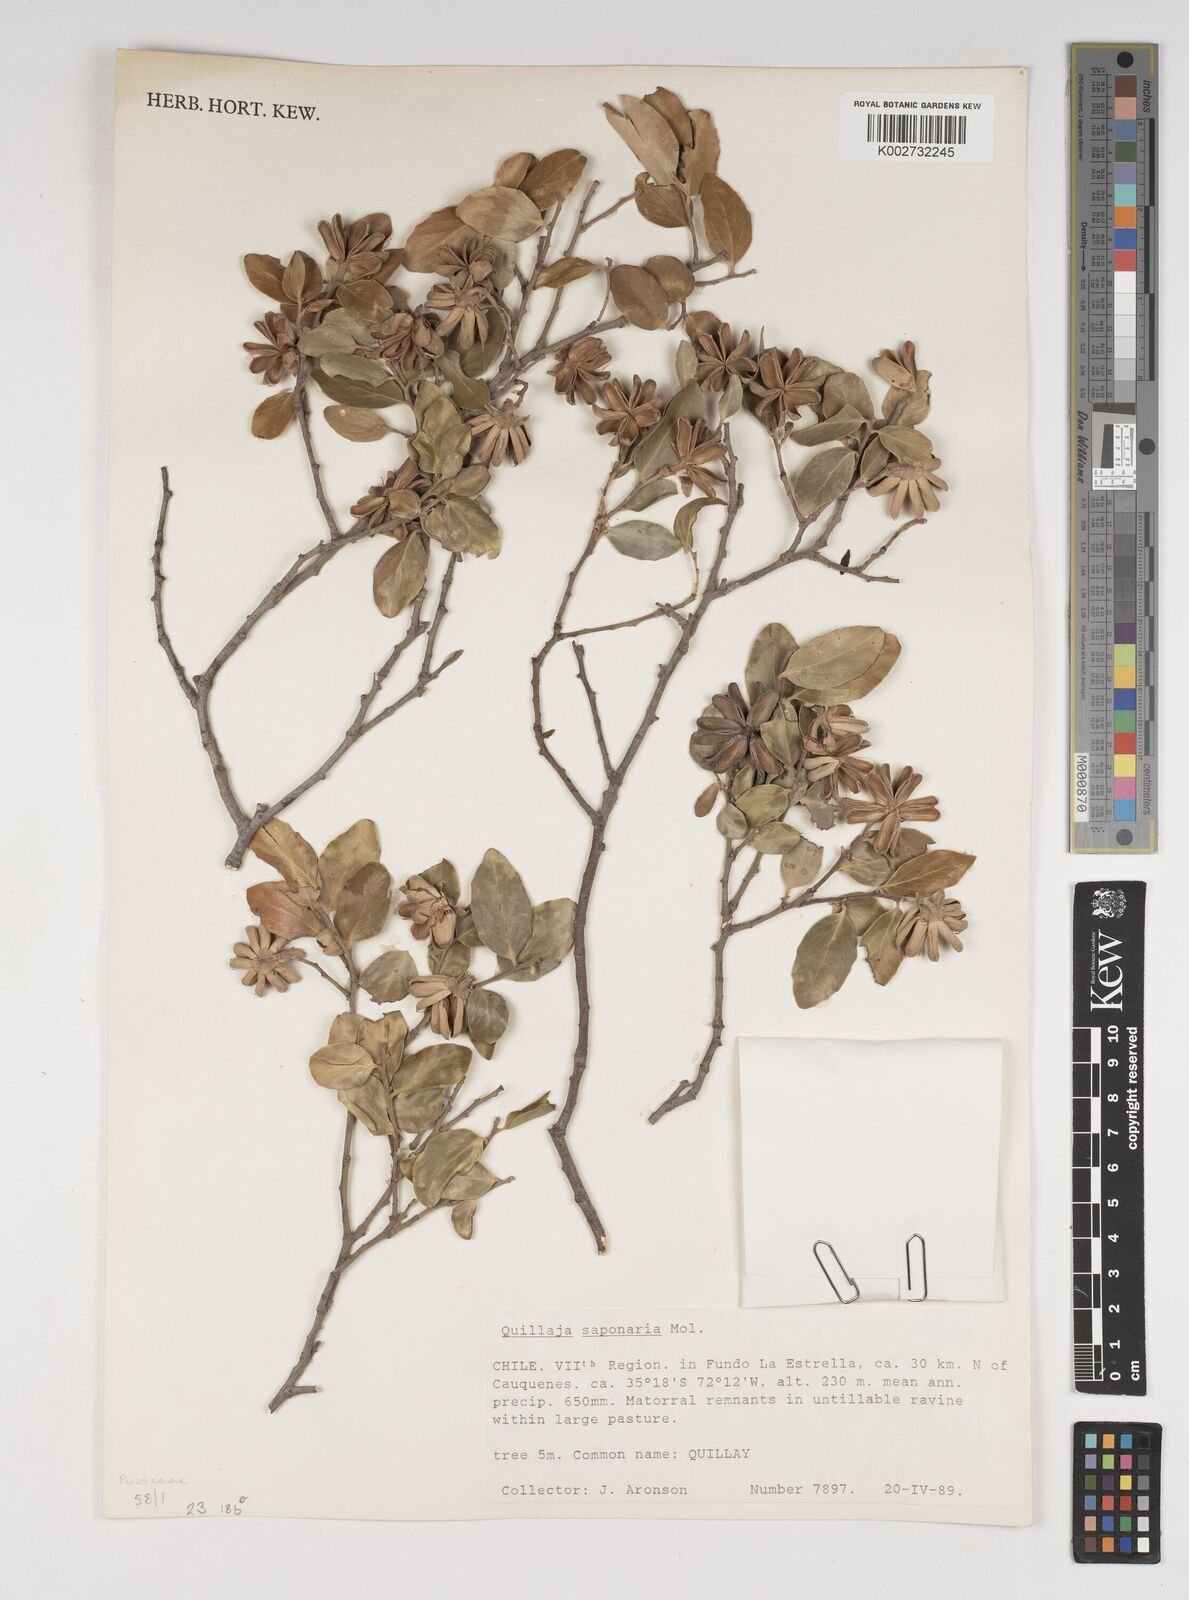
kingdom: Plantae
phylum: Tracheophyta
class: Magnoliopsida
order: Fabales
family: Quillajaceae
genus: Quillaja
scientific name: Quillaja saponaria
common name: Murillo's-bark
